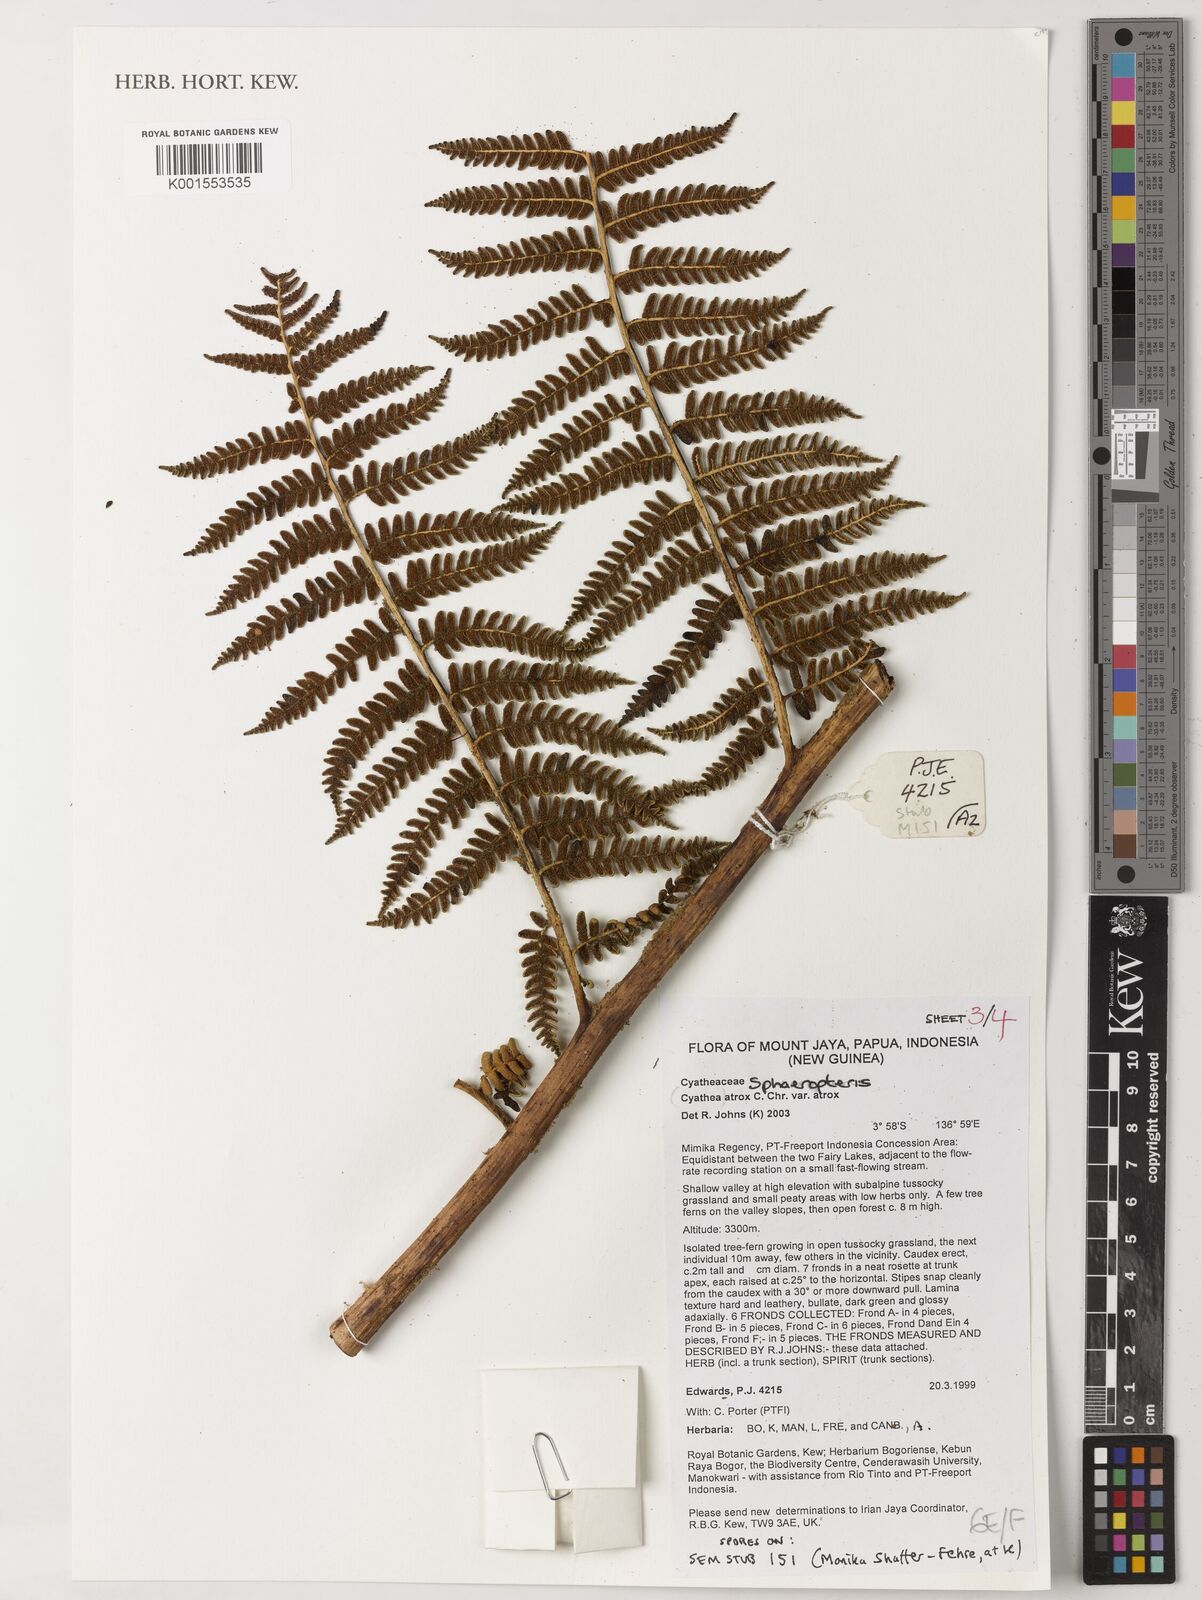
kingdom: Plantae
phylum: Tracheophyta
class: Polypodiopsida
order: Cyatheales
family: Cyatheaceae
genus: Sphaeropteris
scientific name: Sphaeropteris atrox
